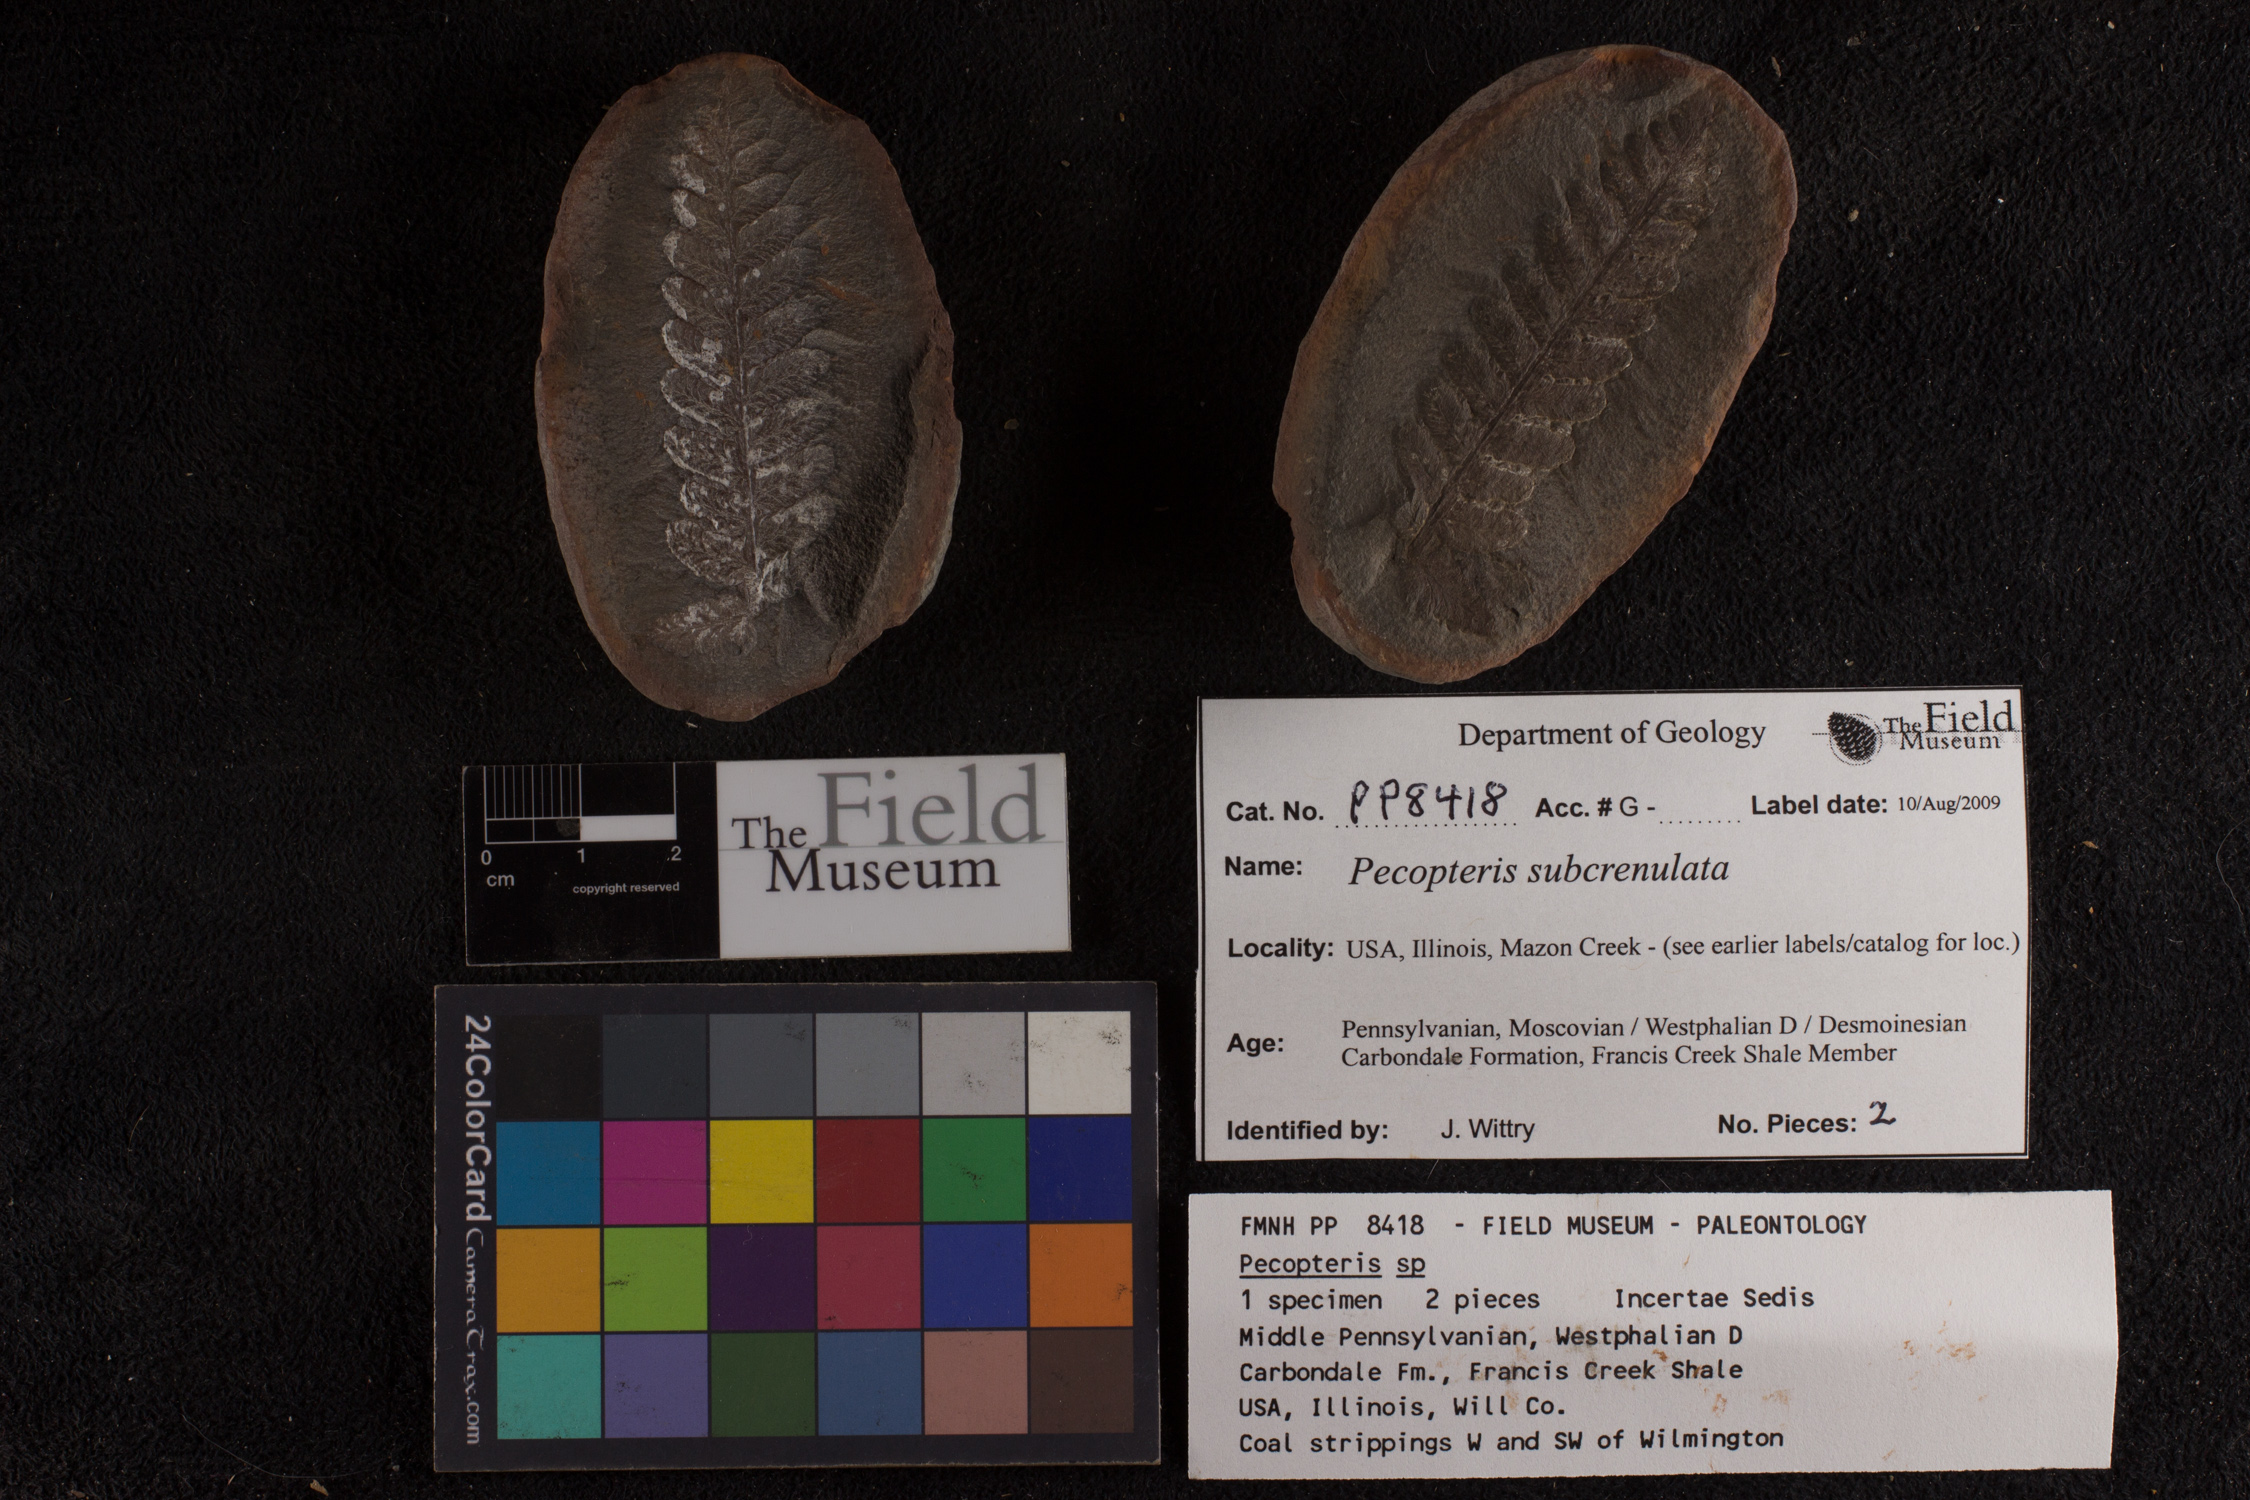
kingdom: Plantae
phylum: Tracheophyta
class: Polypodiopsida
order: Marattiales
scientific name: Marattiales
